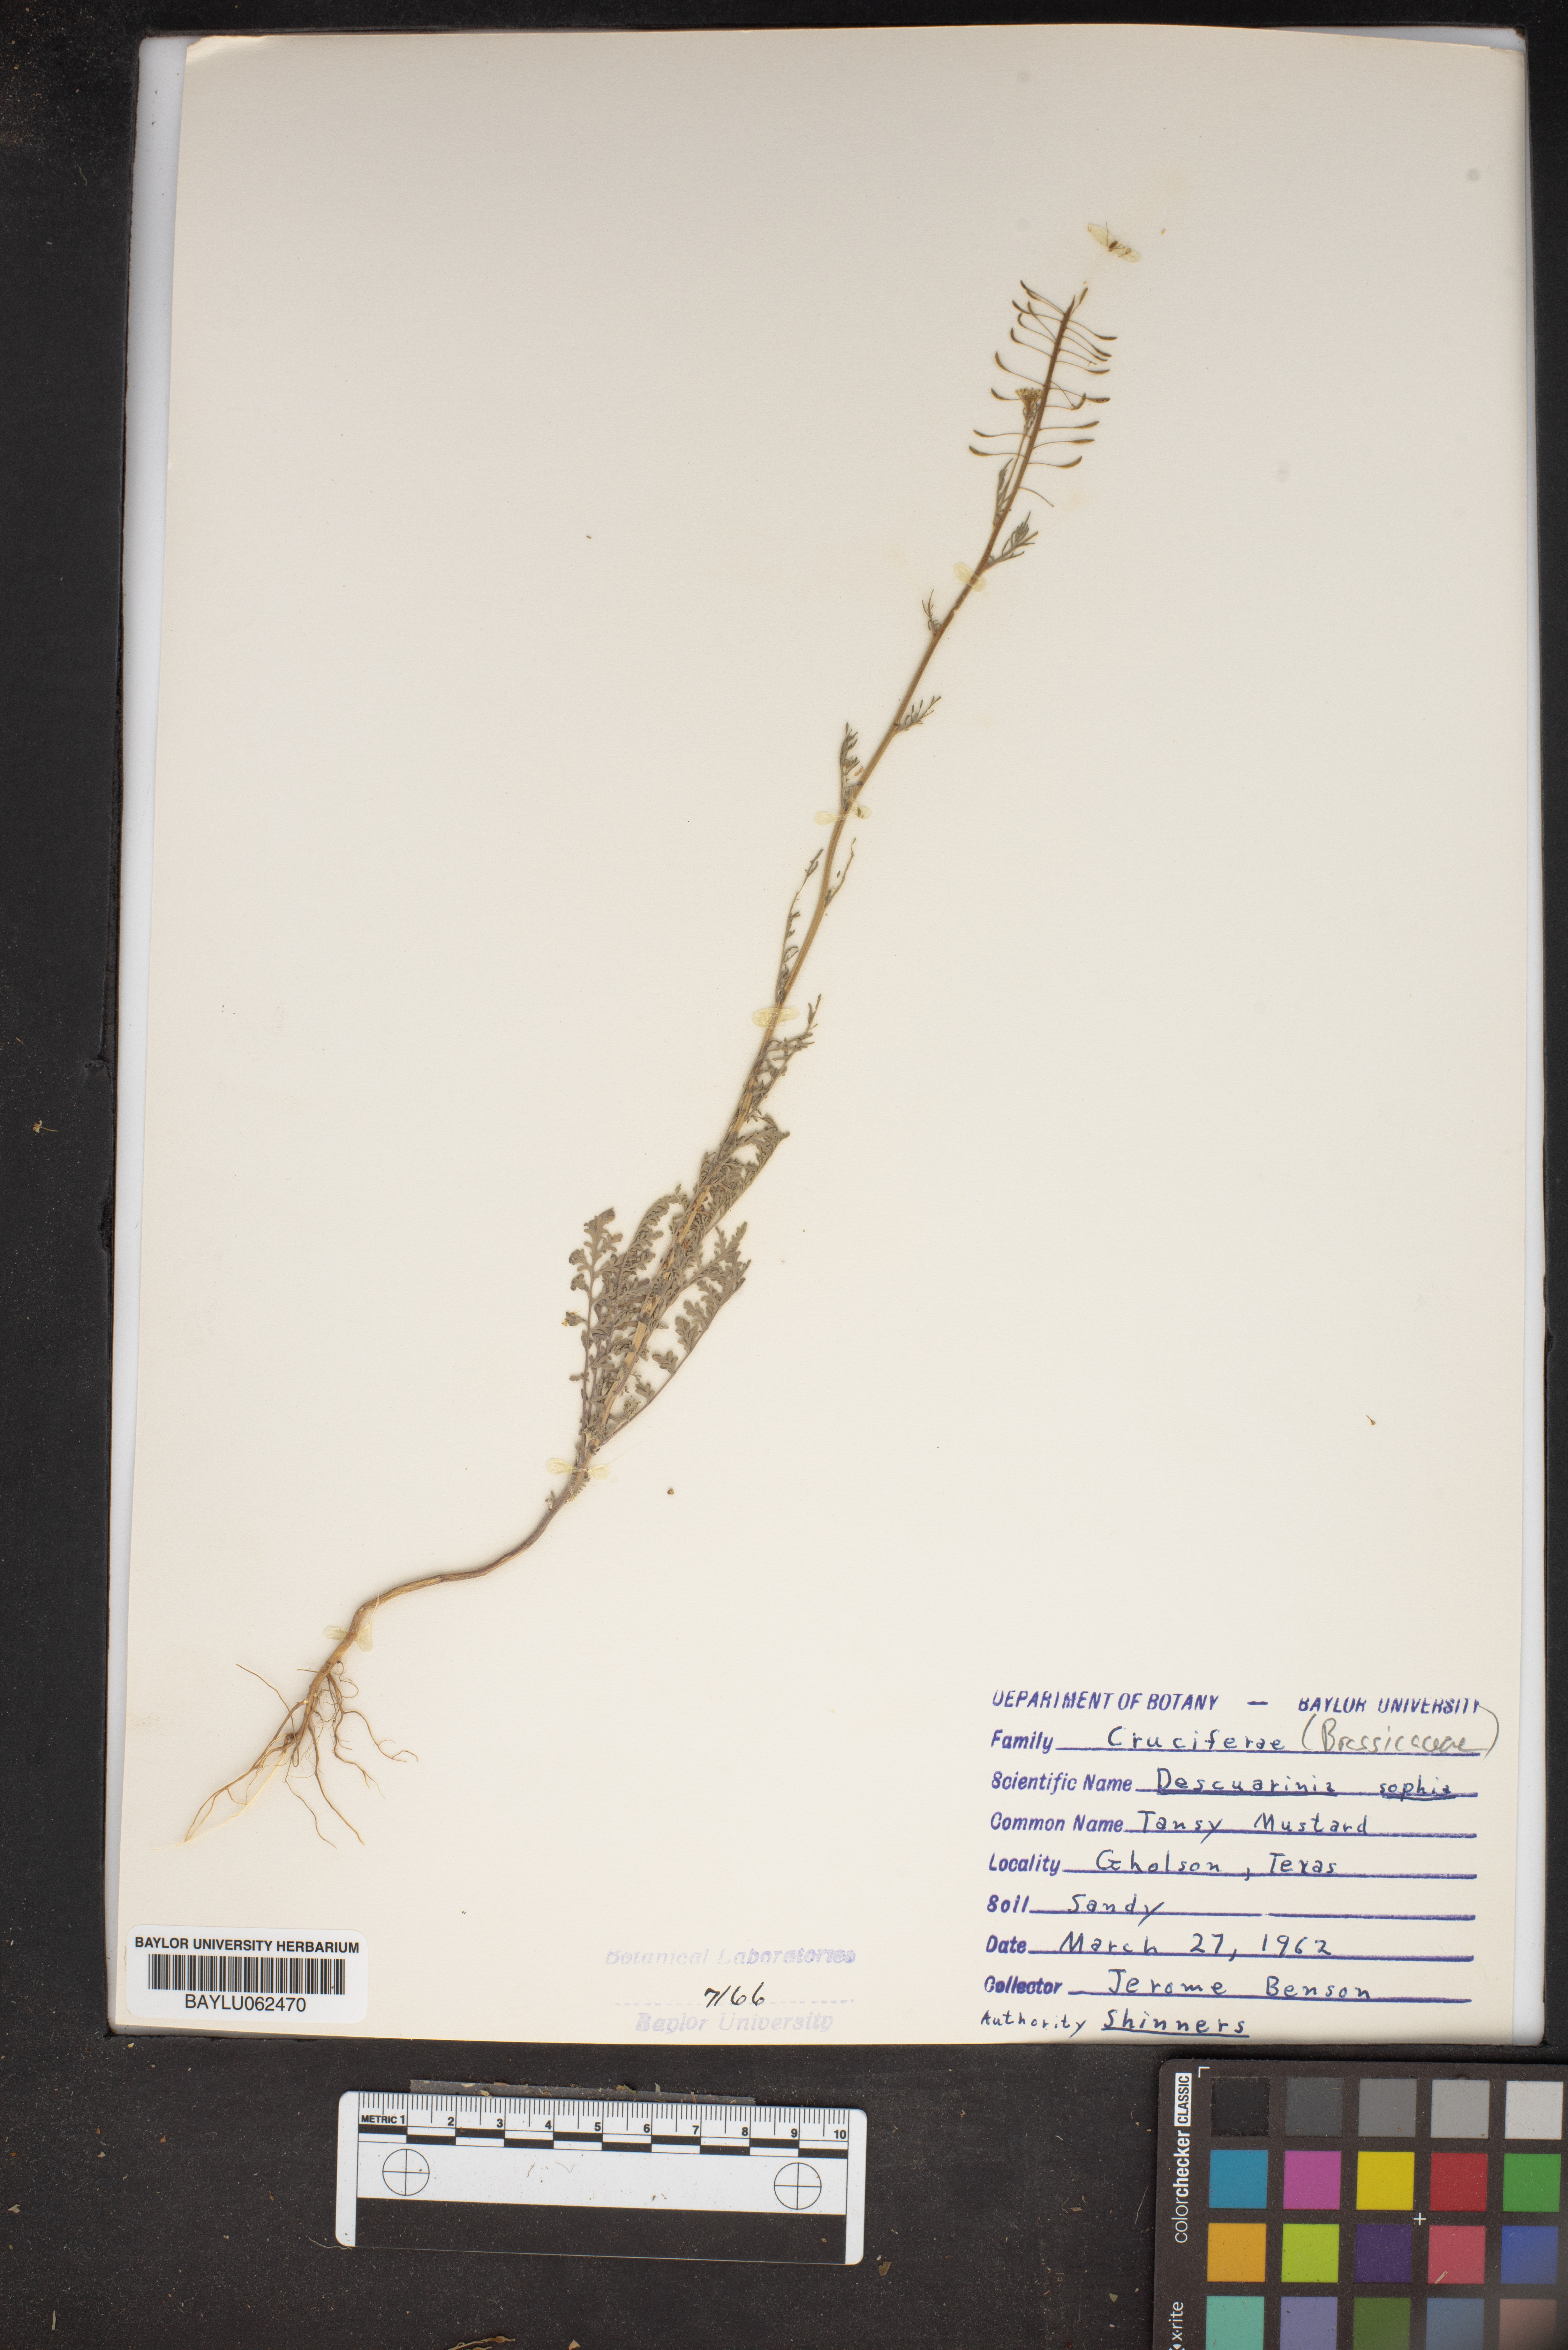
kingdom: Plantae
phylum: Tracheophyta
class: Magnoliopsida
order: Brassicales
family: Brassicaceae
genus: Descurainia
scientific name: Descurainia sophia
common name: Flixweed
